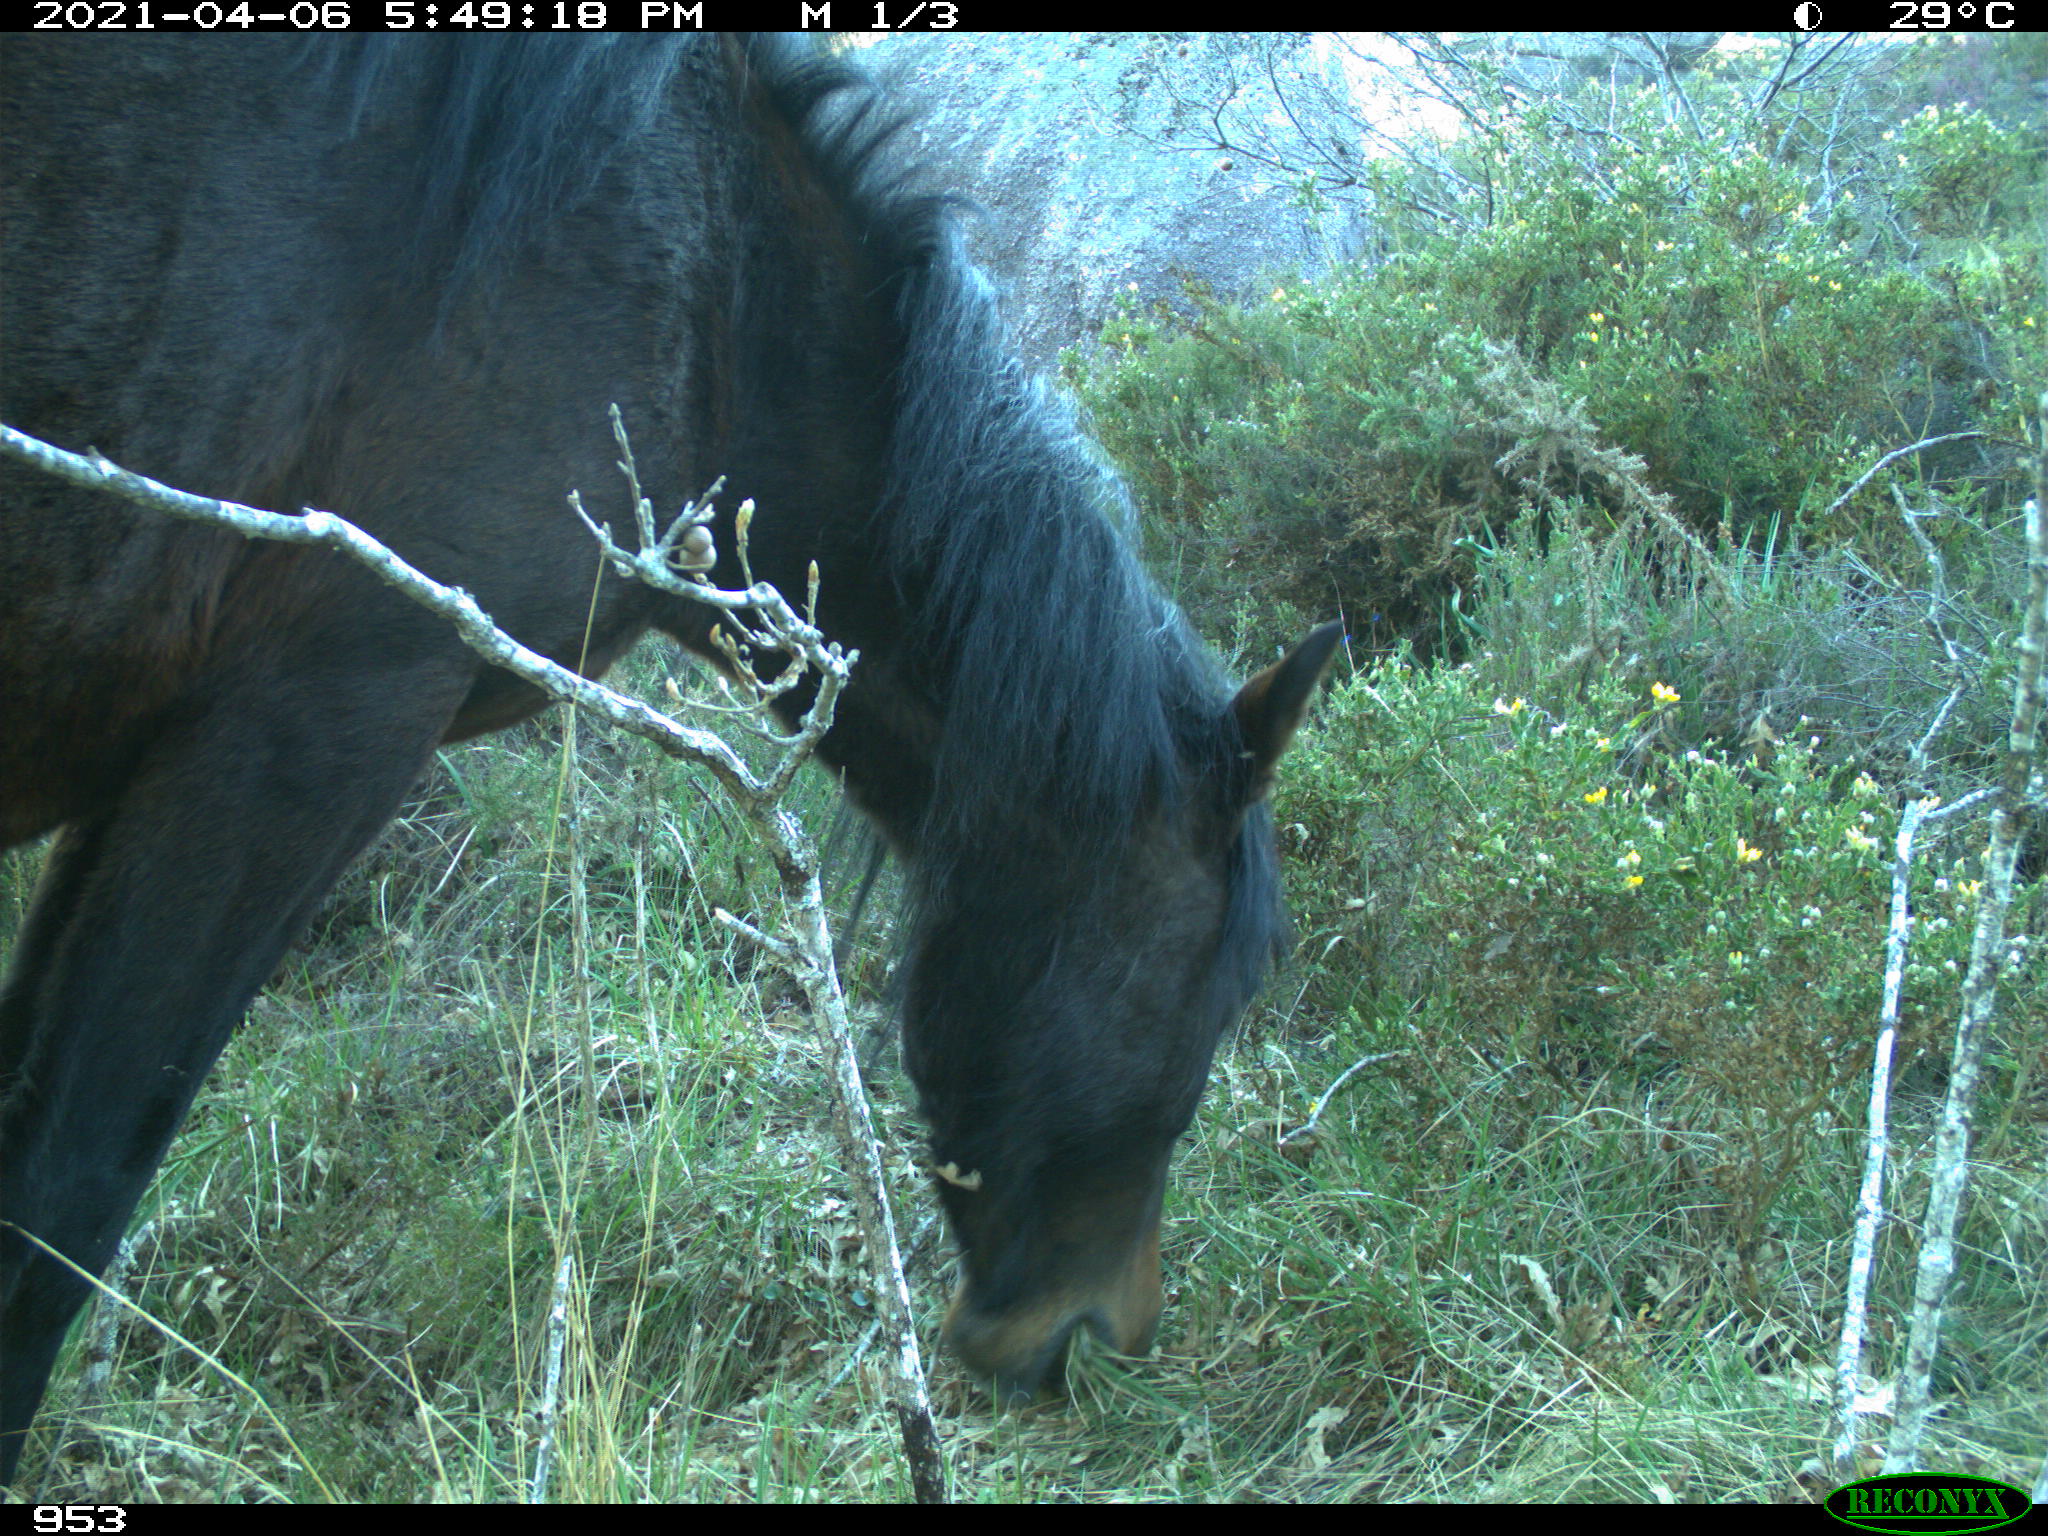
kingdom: Animalia
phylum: Chordata
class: Mammalia
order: Perissodactyla
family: Equidae
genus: Equus
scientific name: Equus caballus
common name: Horse
